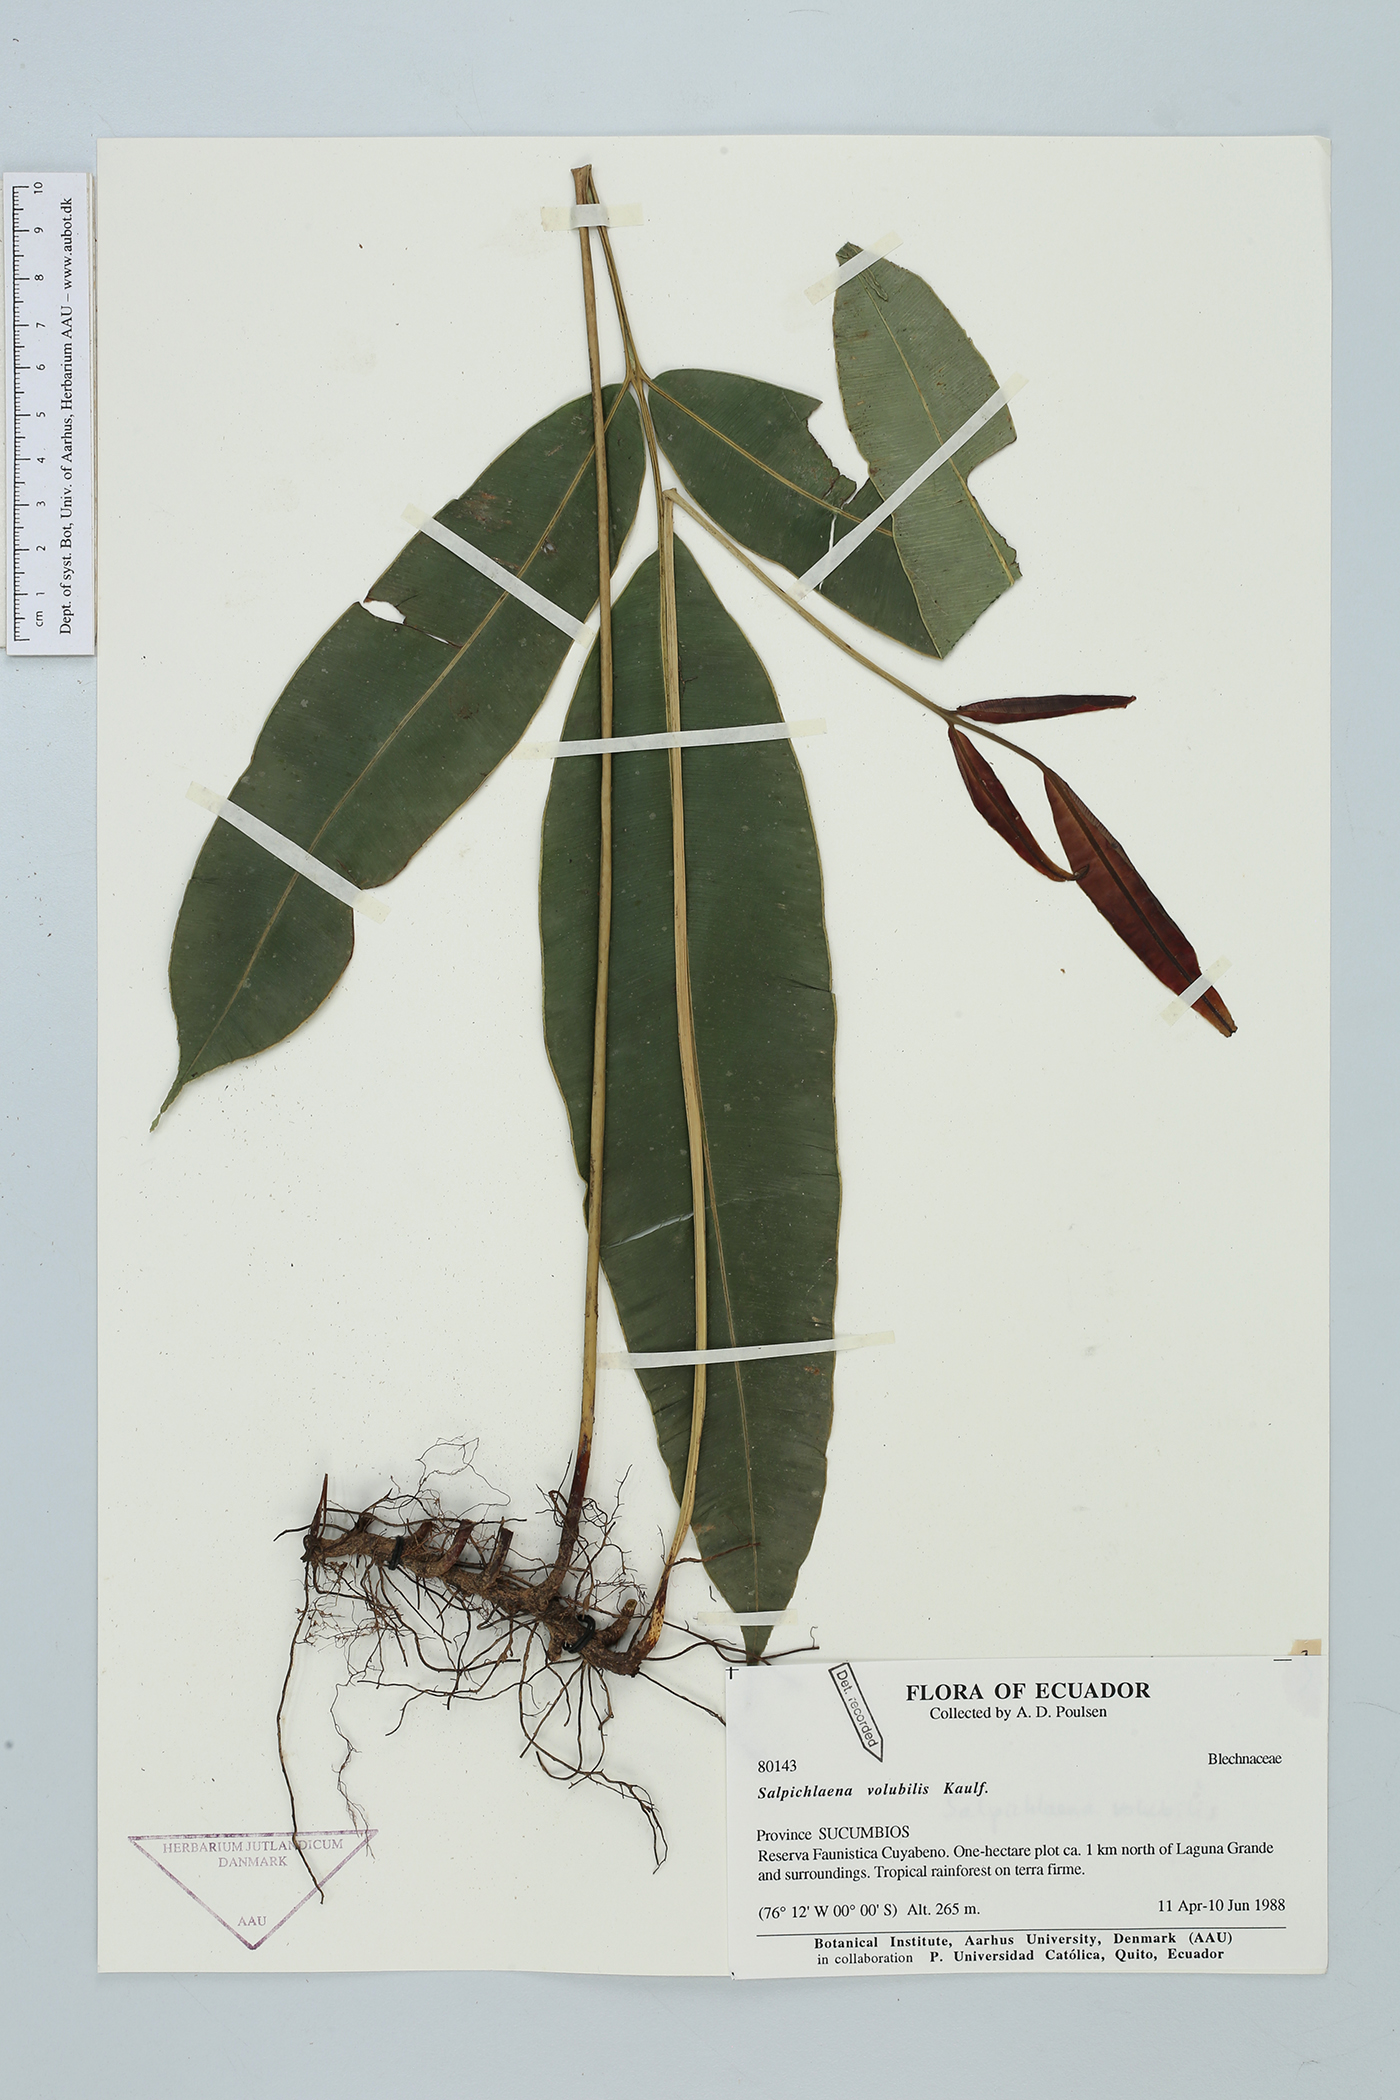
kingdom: Plantae
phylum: Tracheophyta
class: Polypodiopsida
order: Polypodiales
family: Blechnaceae
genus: Salpichlaena
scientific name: Salpichlaena volubilis
